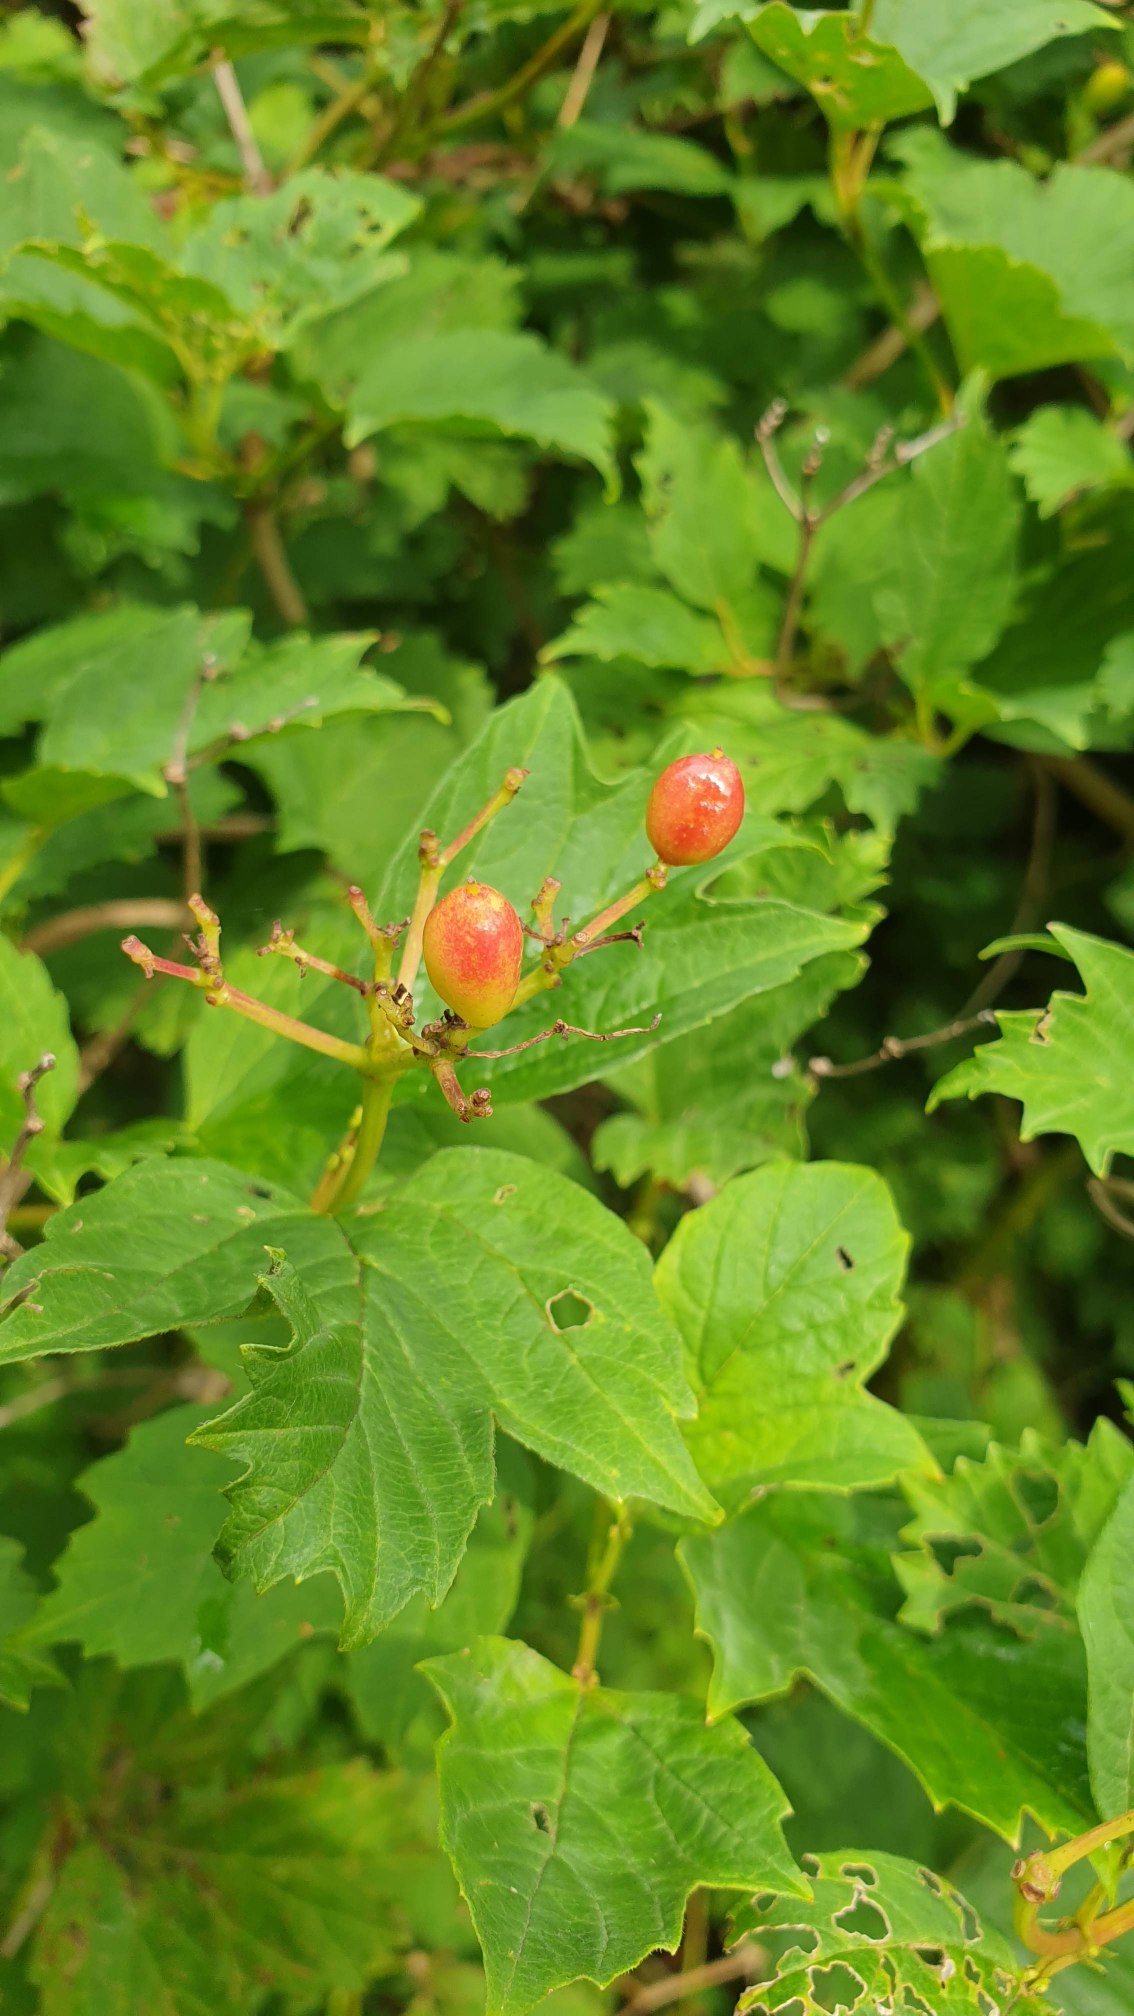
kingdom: Plantae
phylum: Tracheophyta
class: Magnoliopsida
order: Dipsacales
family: Viburnaceae
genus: Viburnum
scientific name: Viburnum opulus
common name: Kvalkved
